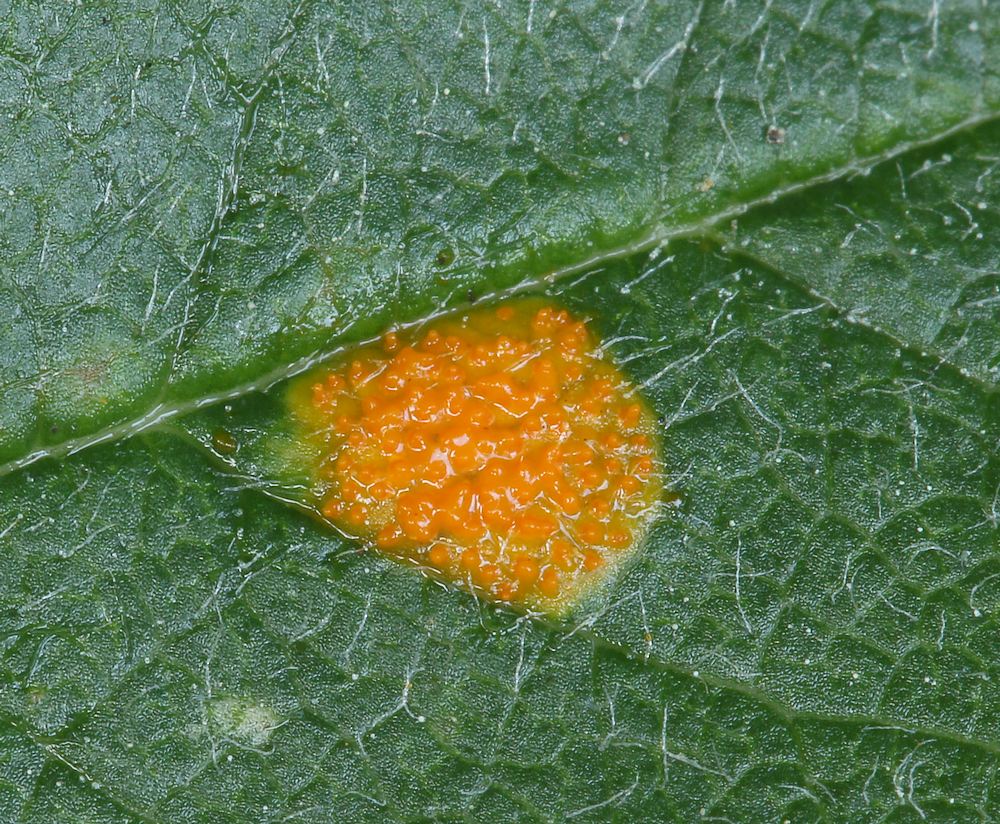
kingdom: Fungi
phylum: Basidiomycota
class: Pucciniomycetes
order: Pucciniales
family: Gymnosporangiaceae
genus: Gymnosporangium
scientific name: Gymnosporangium cornutum
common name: rønnehorn-bævrerust
